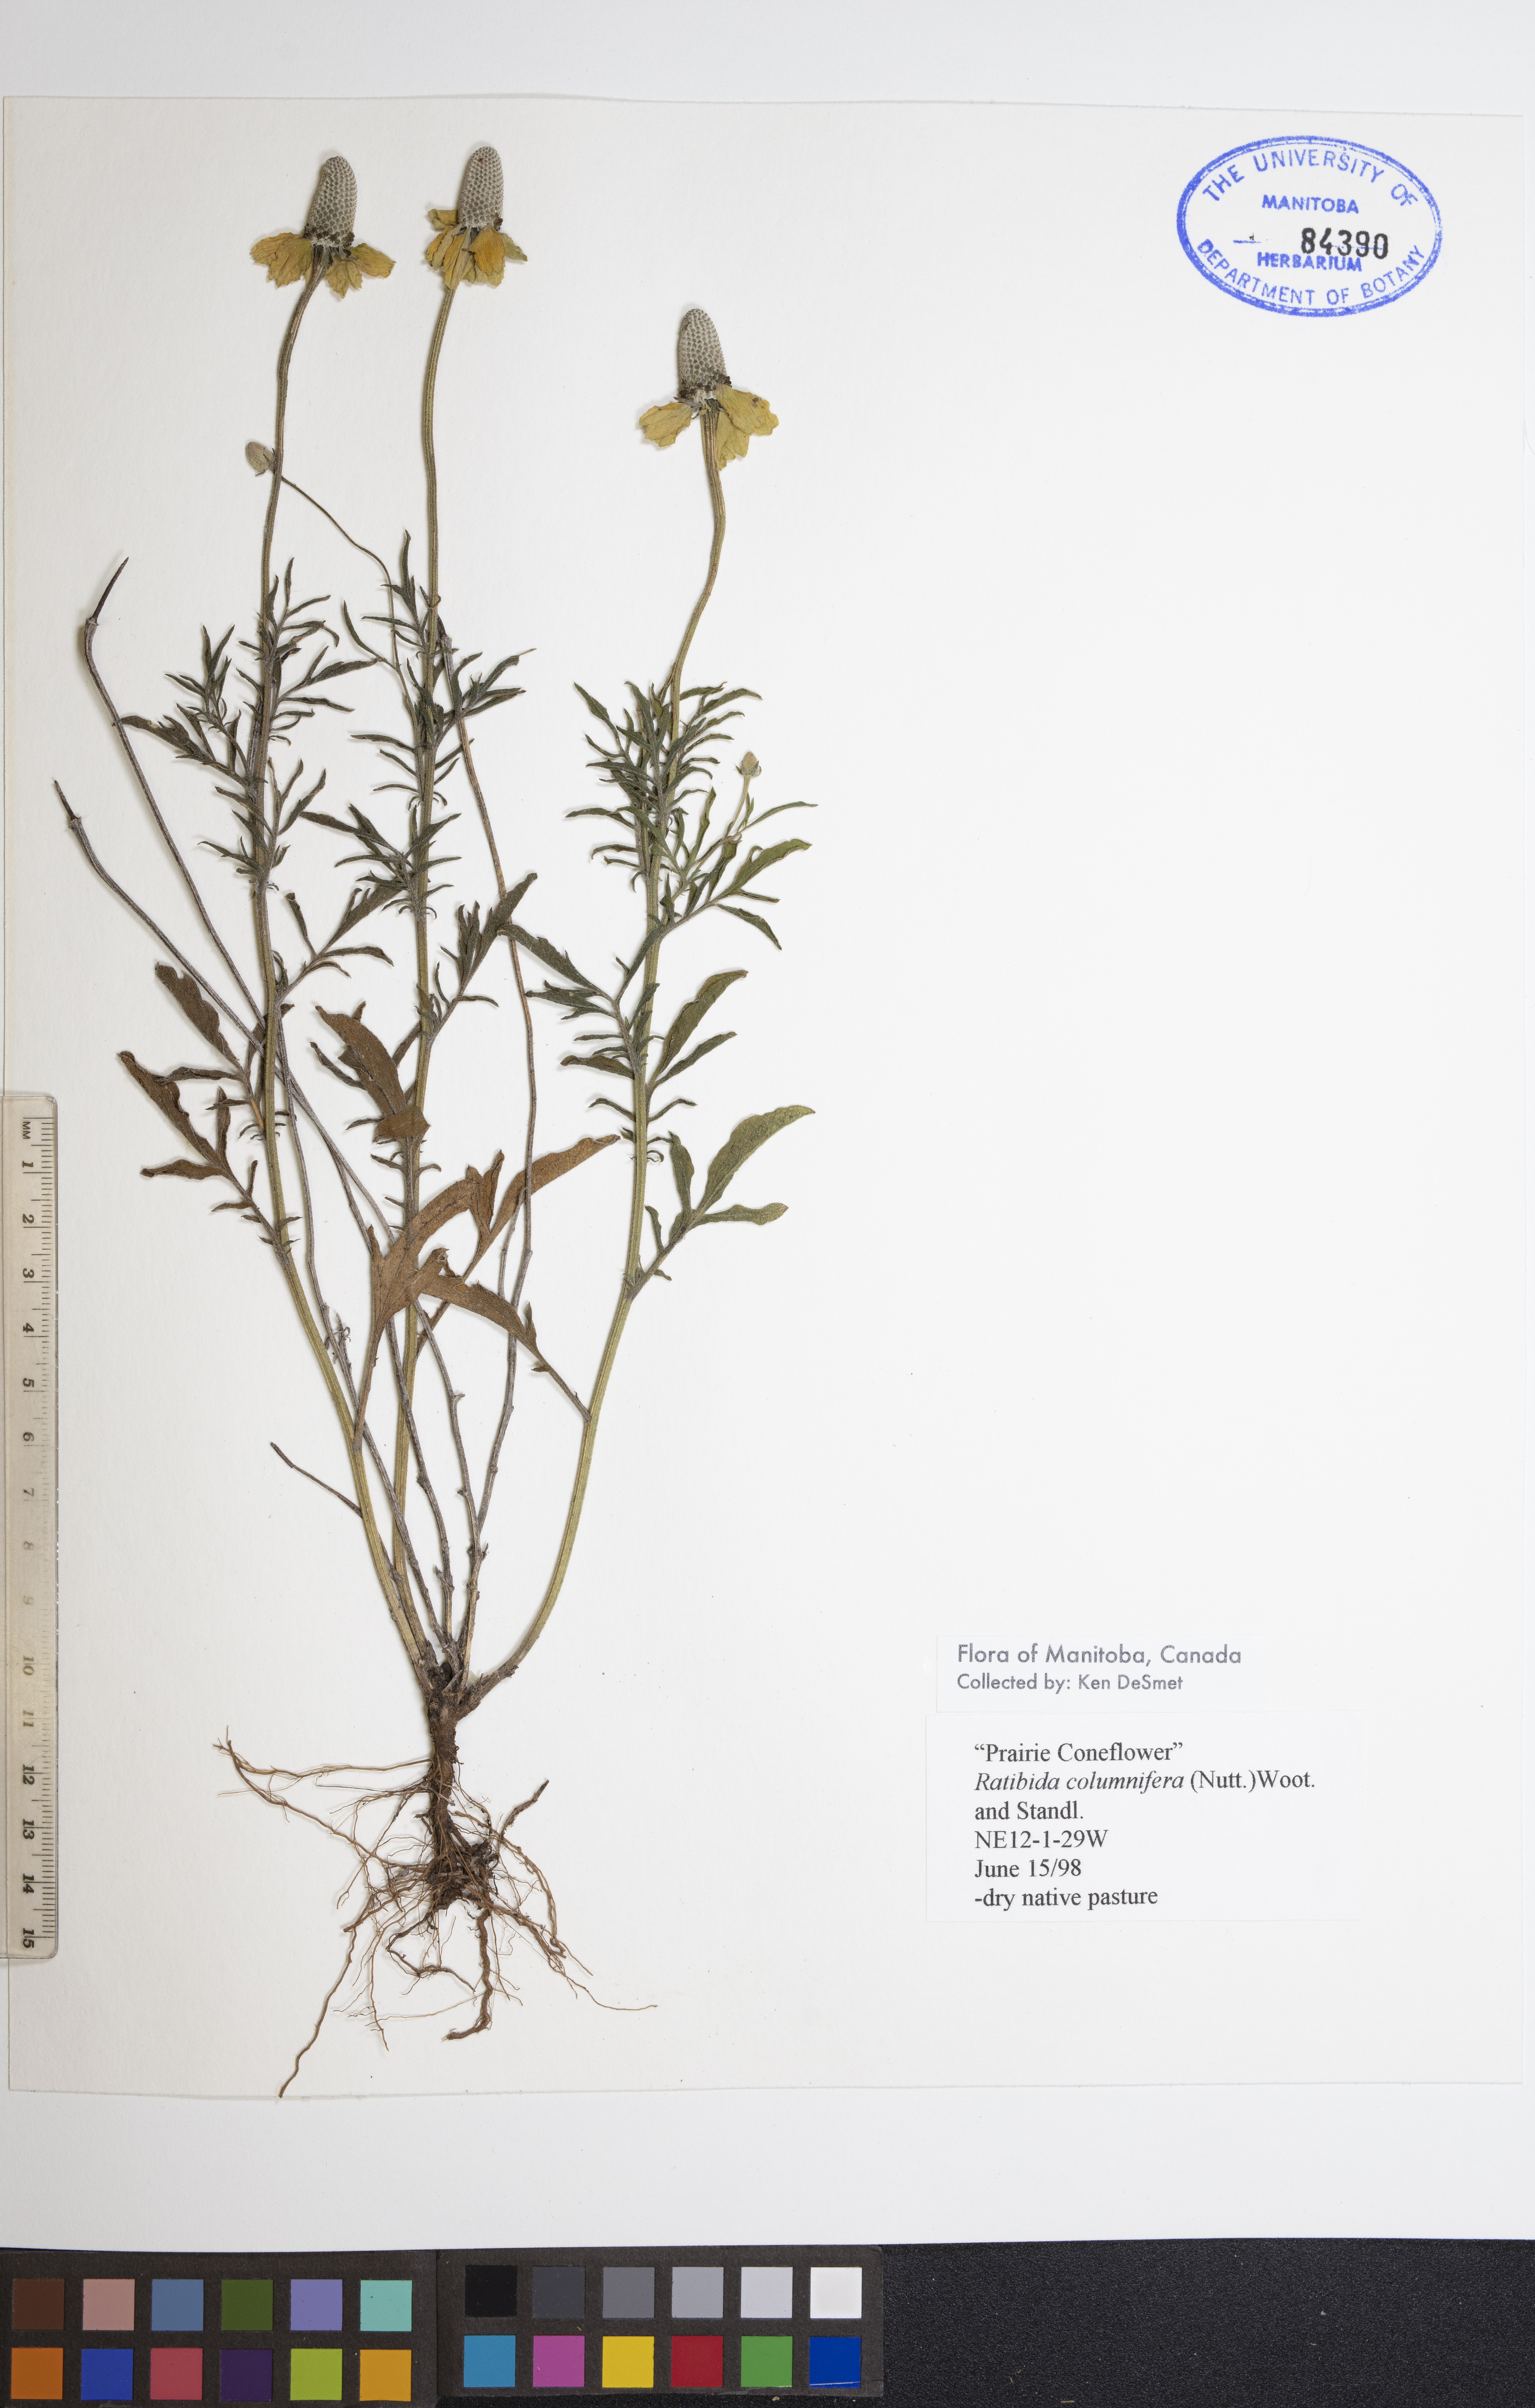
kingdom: Plantae
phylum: Tracheophyta
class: Magnoliopsida
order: Asterales
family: Asteraceae
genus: Ratibida
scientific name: Ratibida columnifera
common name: Prairie coneflower
